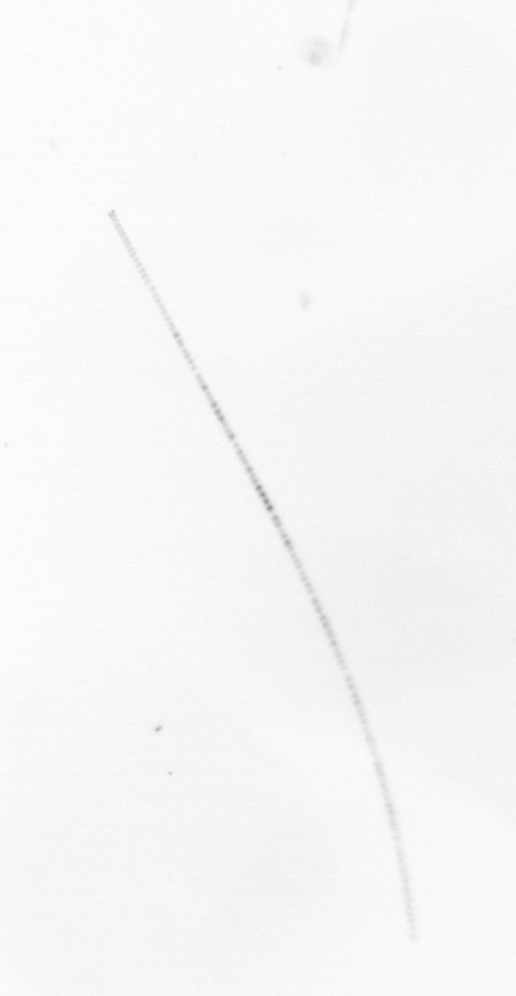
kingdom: Chromista
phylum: Ochrophyta
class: Bacillariophyceae
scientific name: Bacillariophyceae
